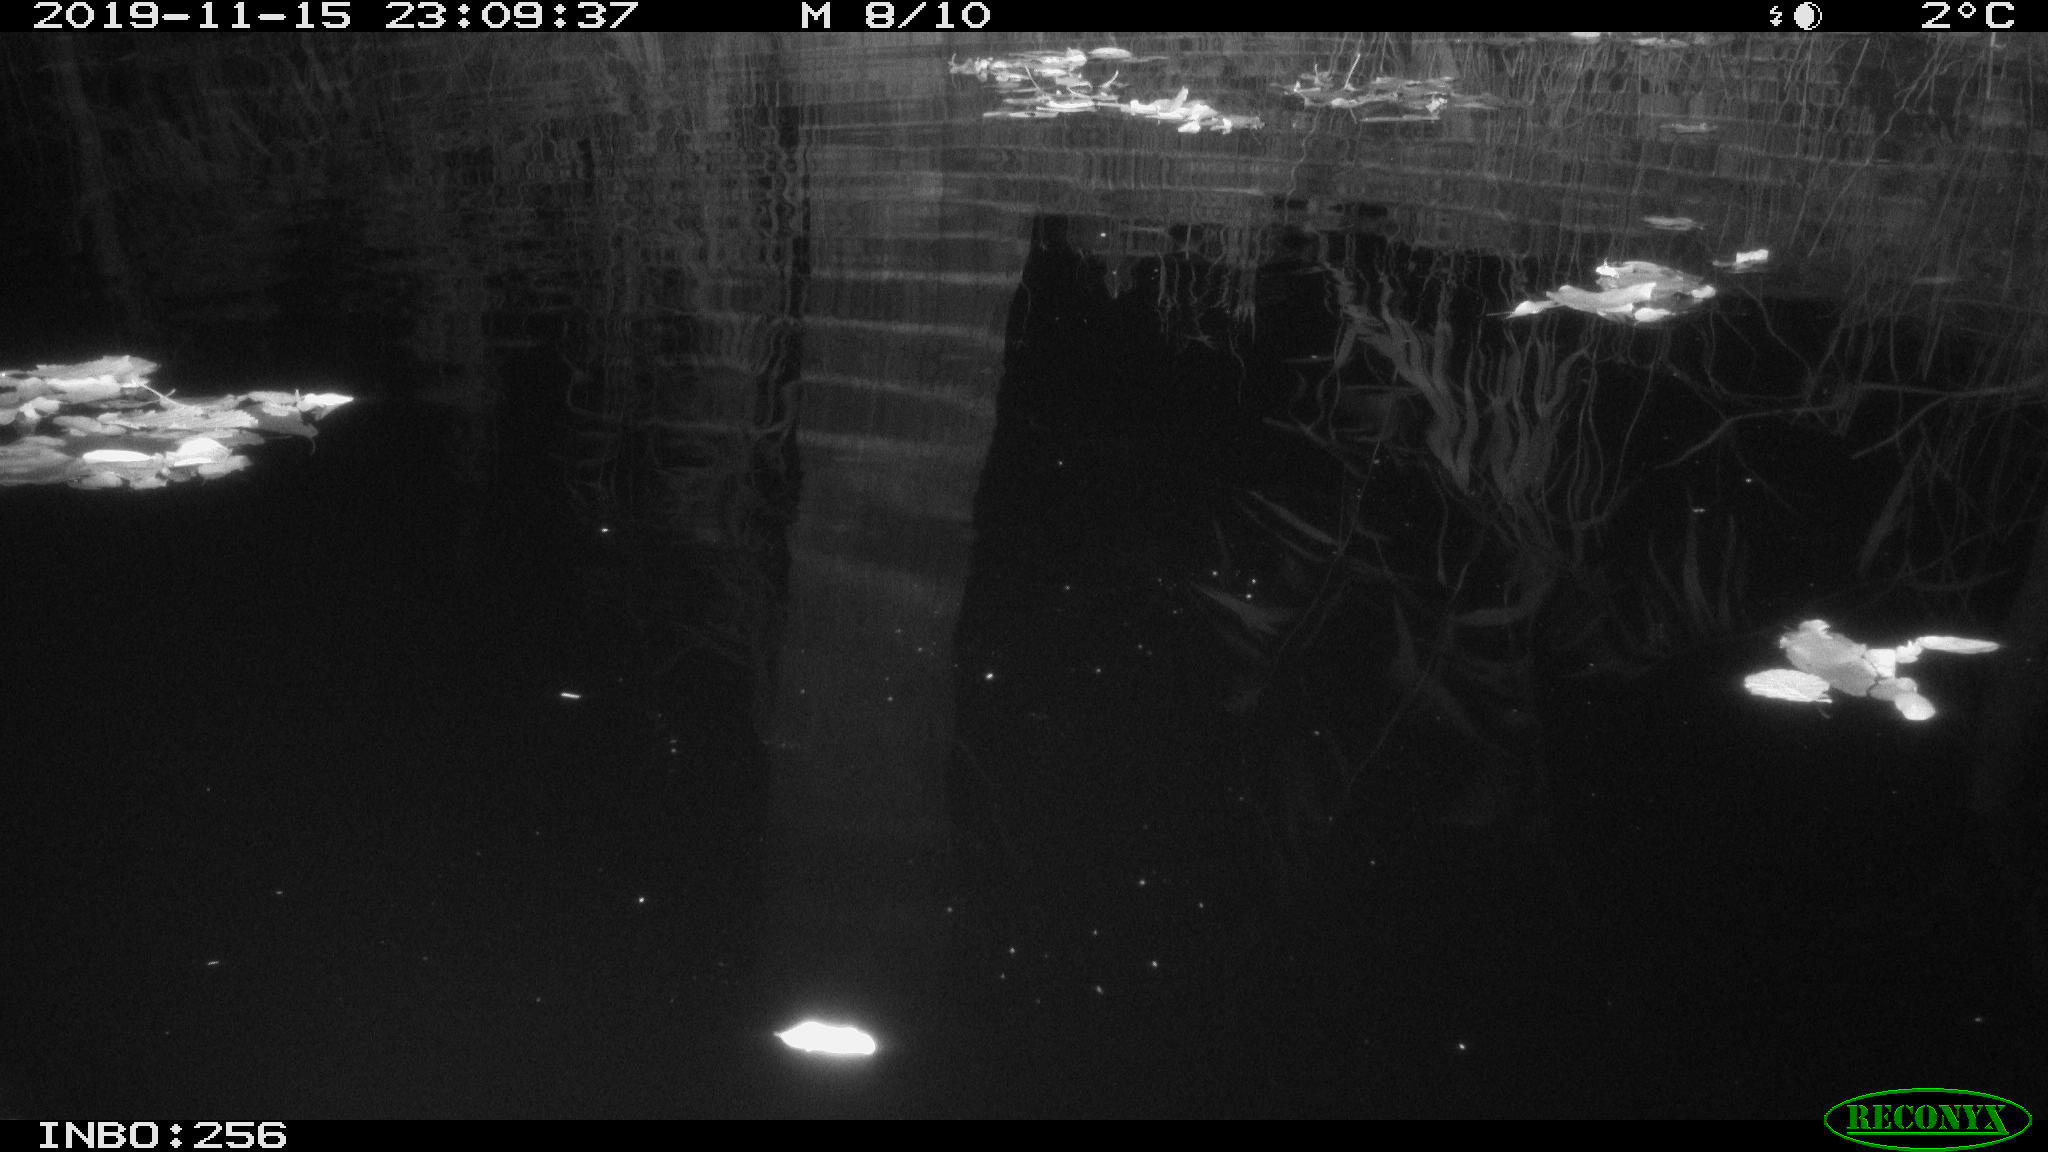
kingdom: Animalia
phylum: Chordata
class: Mammalia
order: Rodentia
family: Muridae
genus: Rattus
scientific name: Rattus norvegicus
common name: Brown rat
